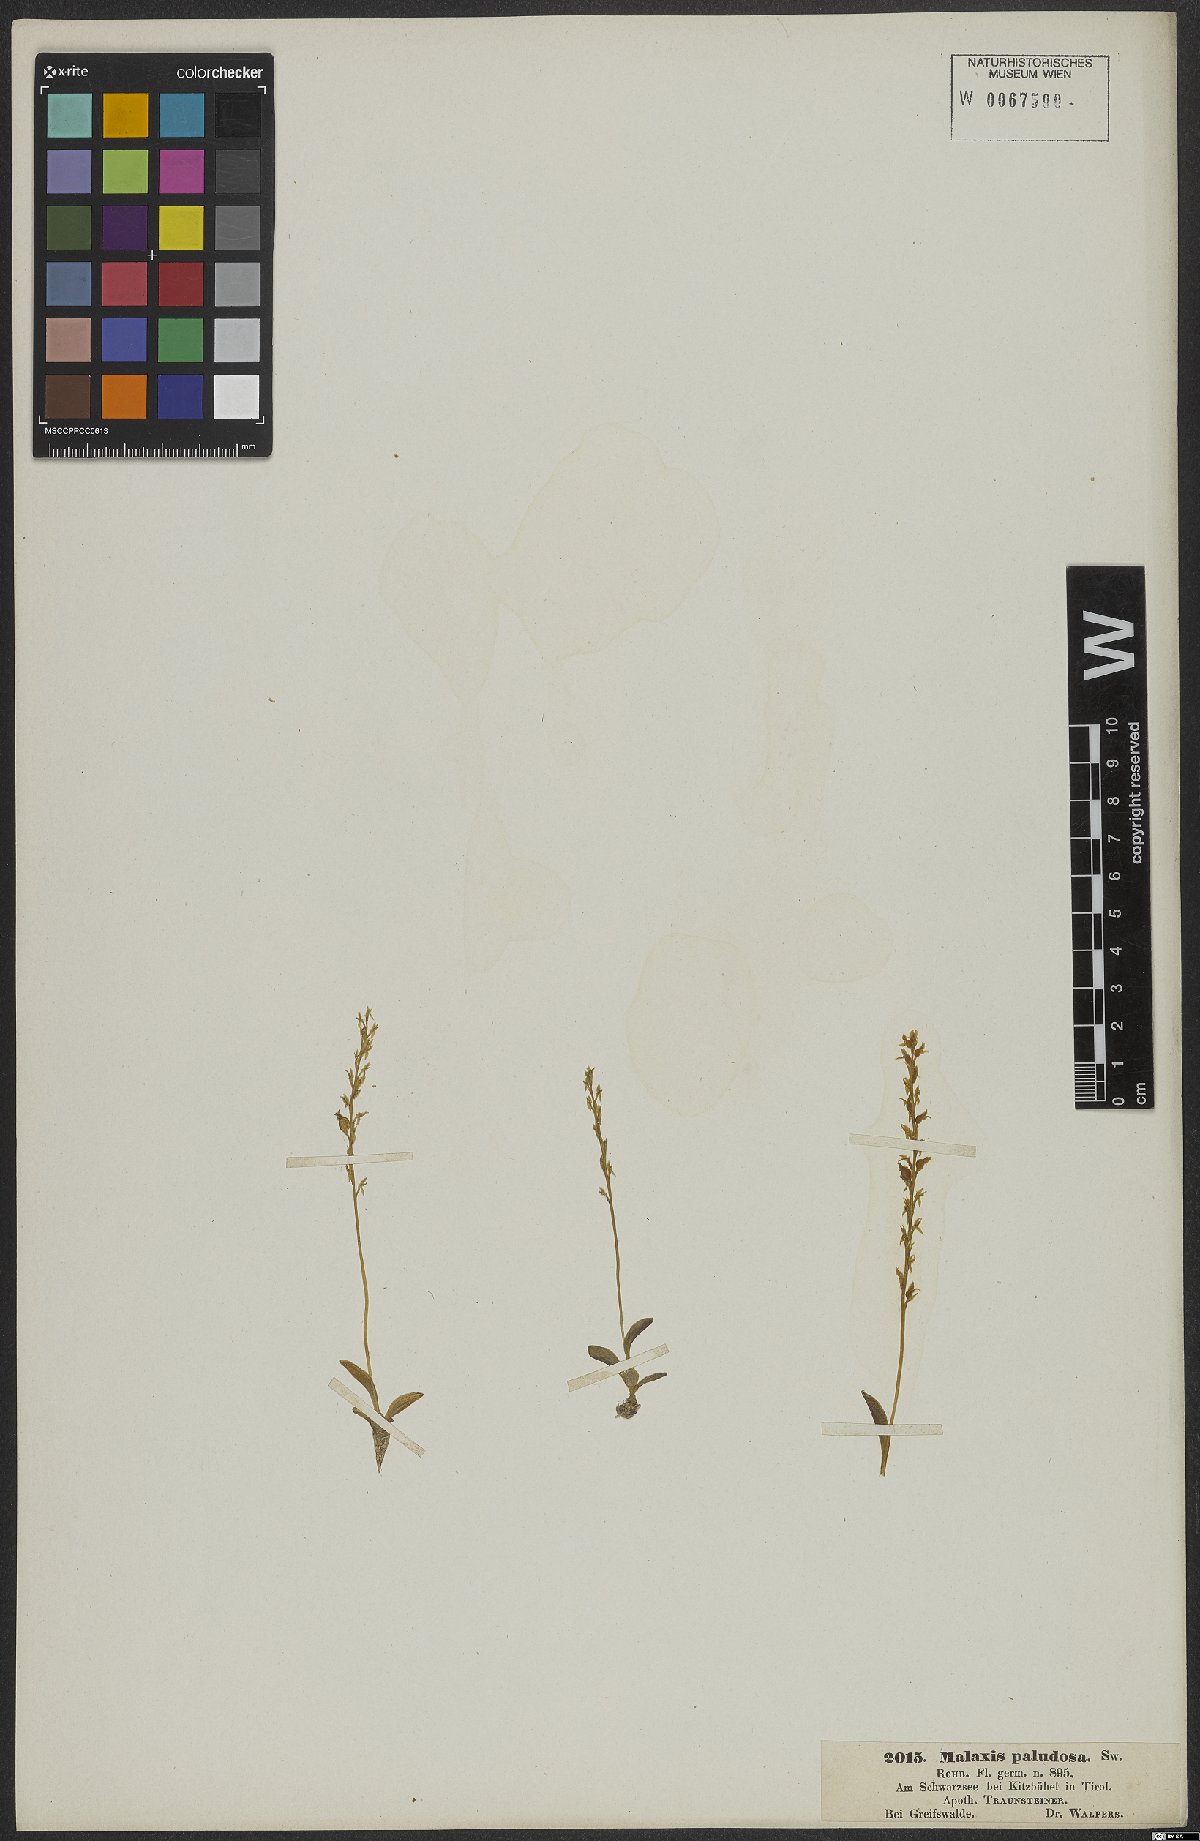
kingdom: Plantae
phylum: Tracheophyta
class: Liliopsida
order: Asparagales
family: Orchidaceae
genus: Hammarbya
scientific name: Hammarbya paludosa
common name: Bog orchid
